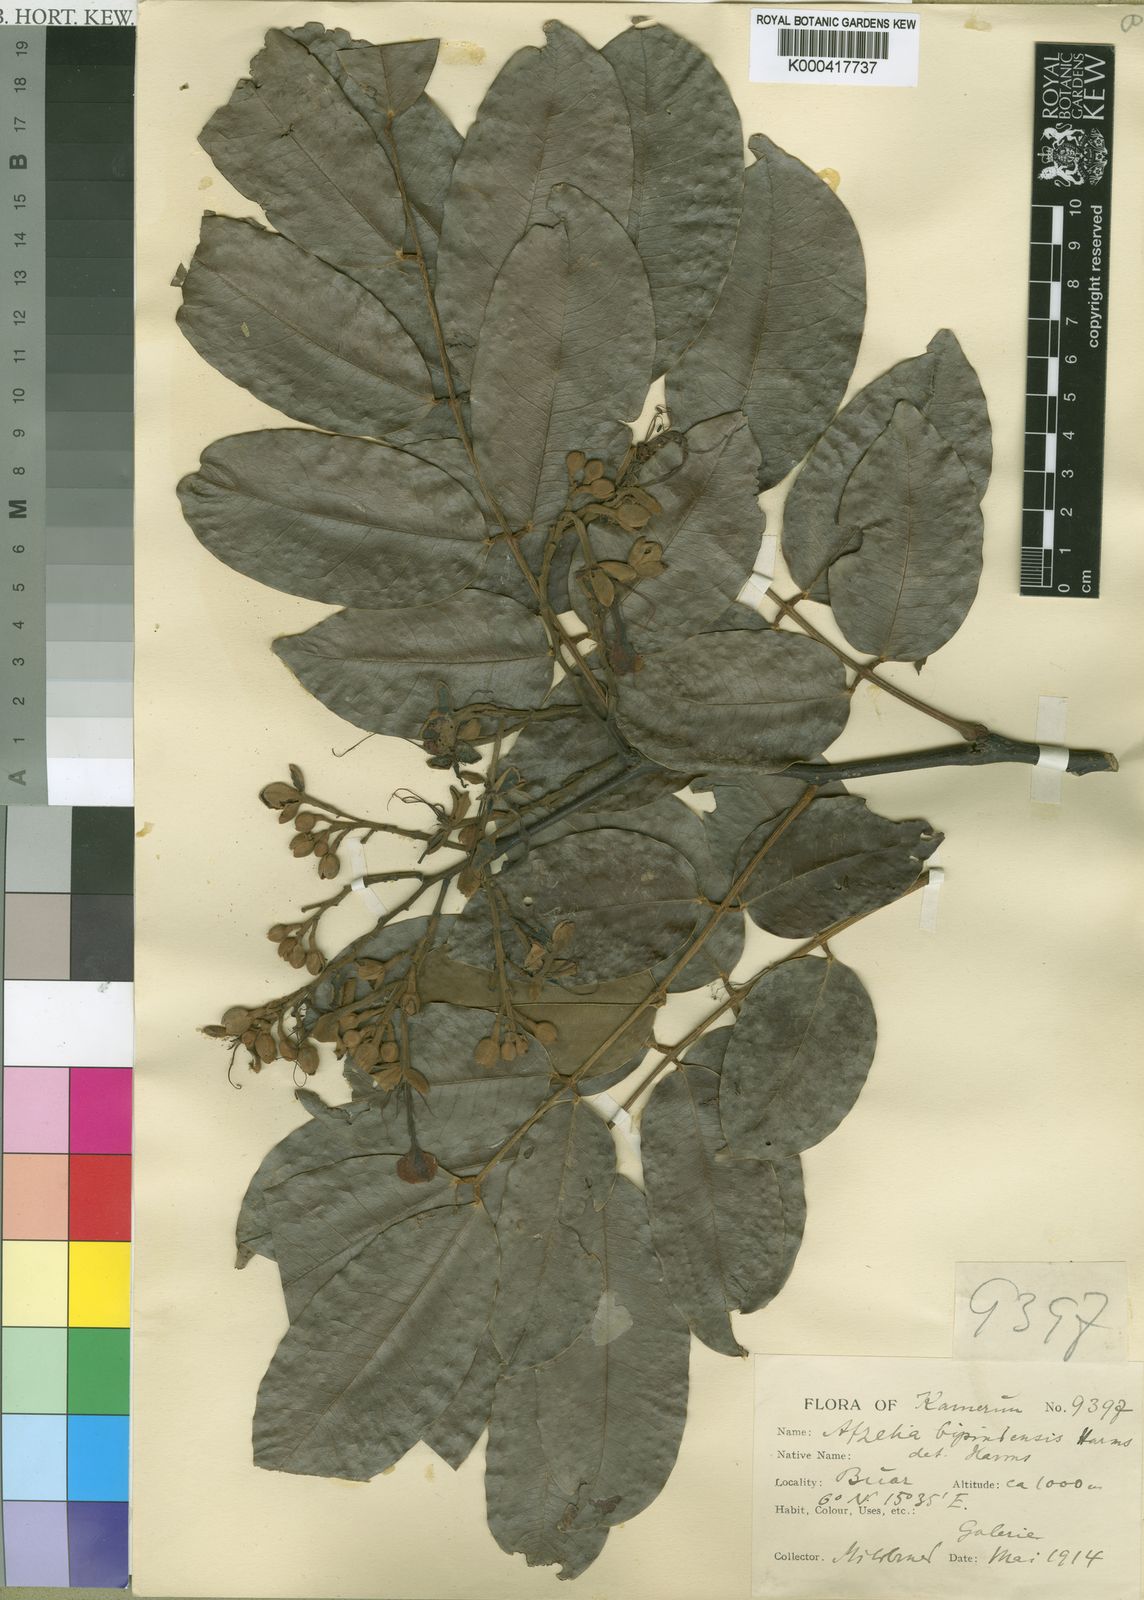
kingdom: Plantae
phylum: Tracheophyta
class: Magnoliopsida
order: Fabales
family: Fabaceae
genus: Afzelia
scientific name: Afzelia bipindensis
